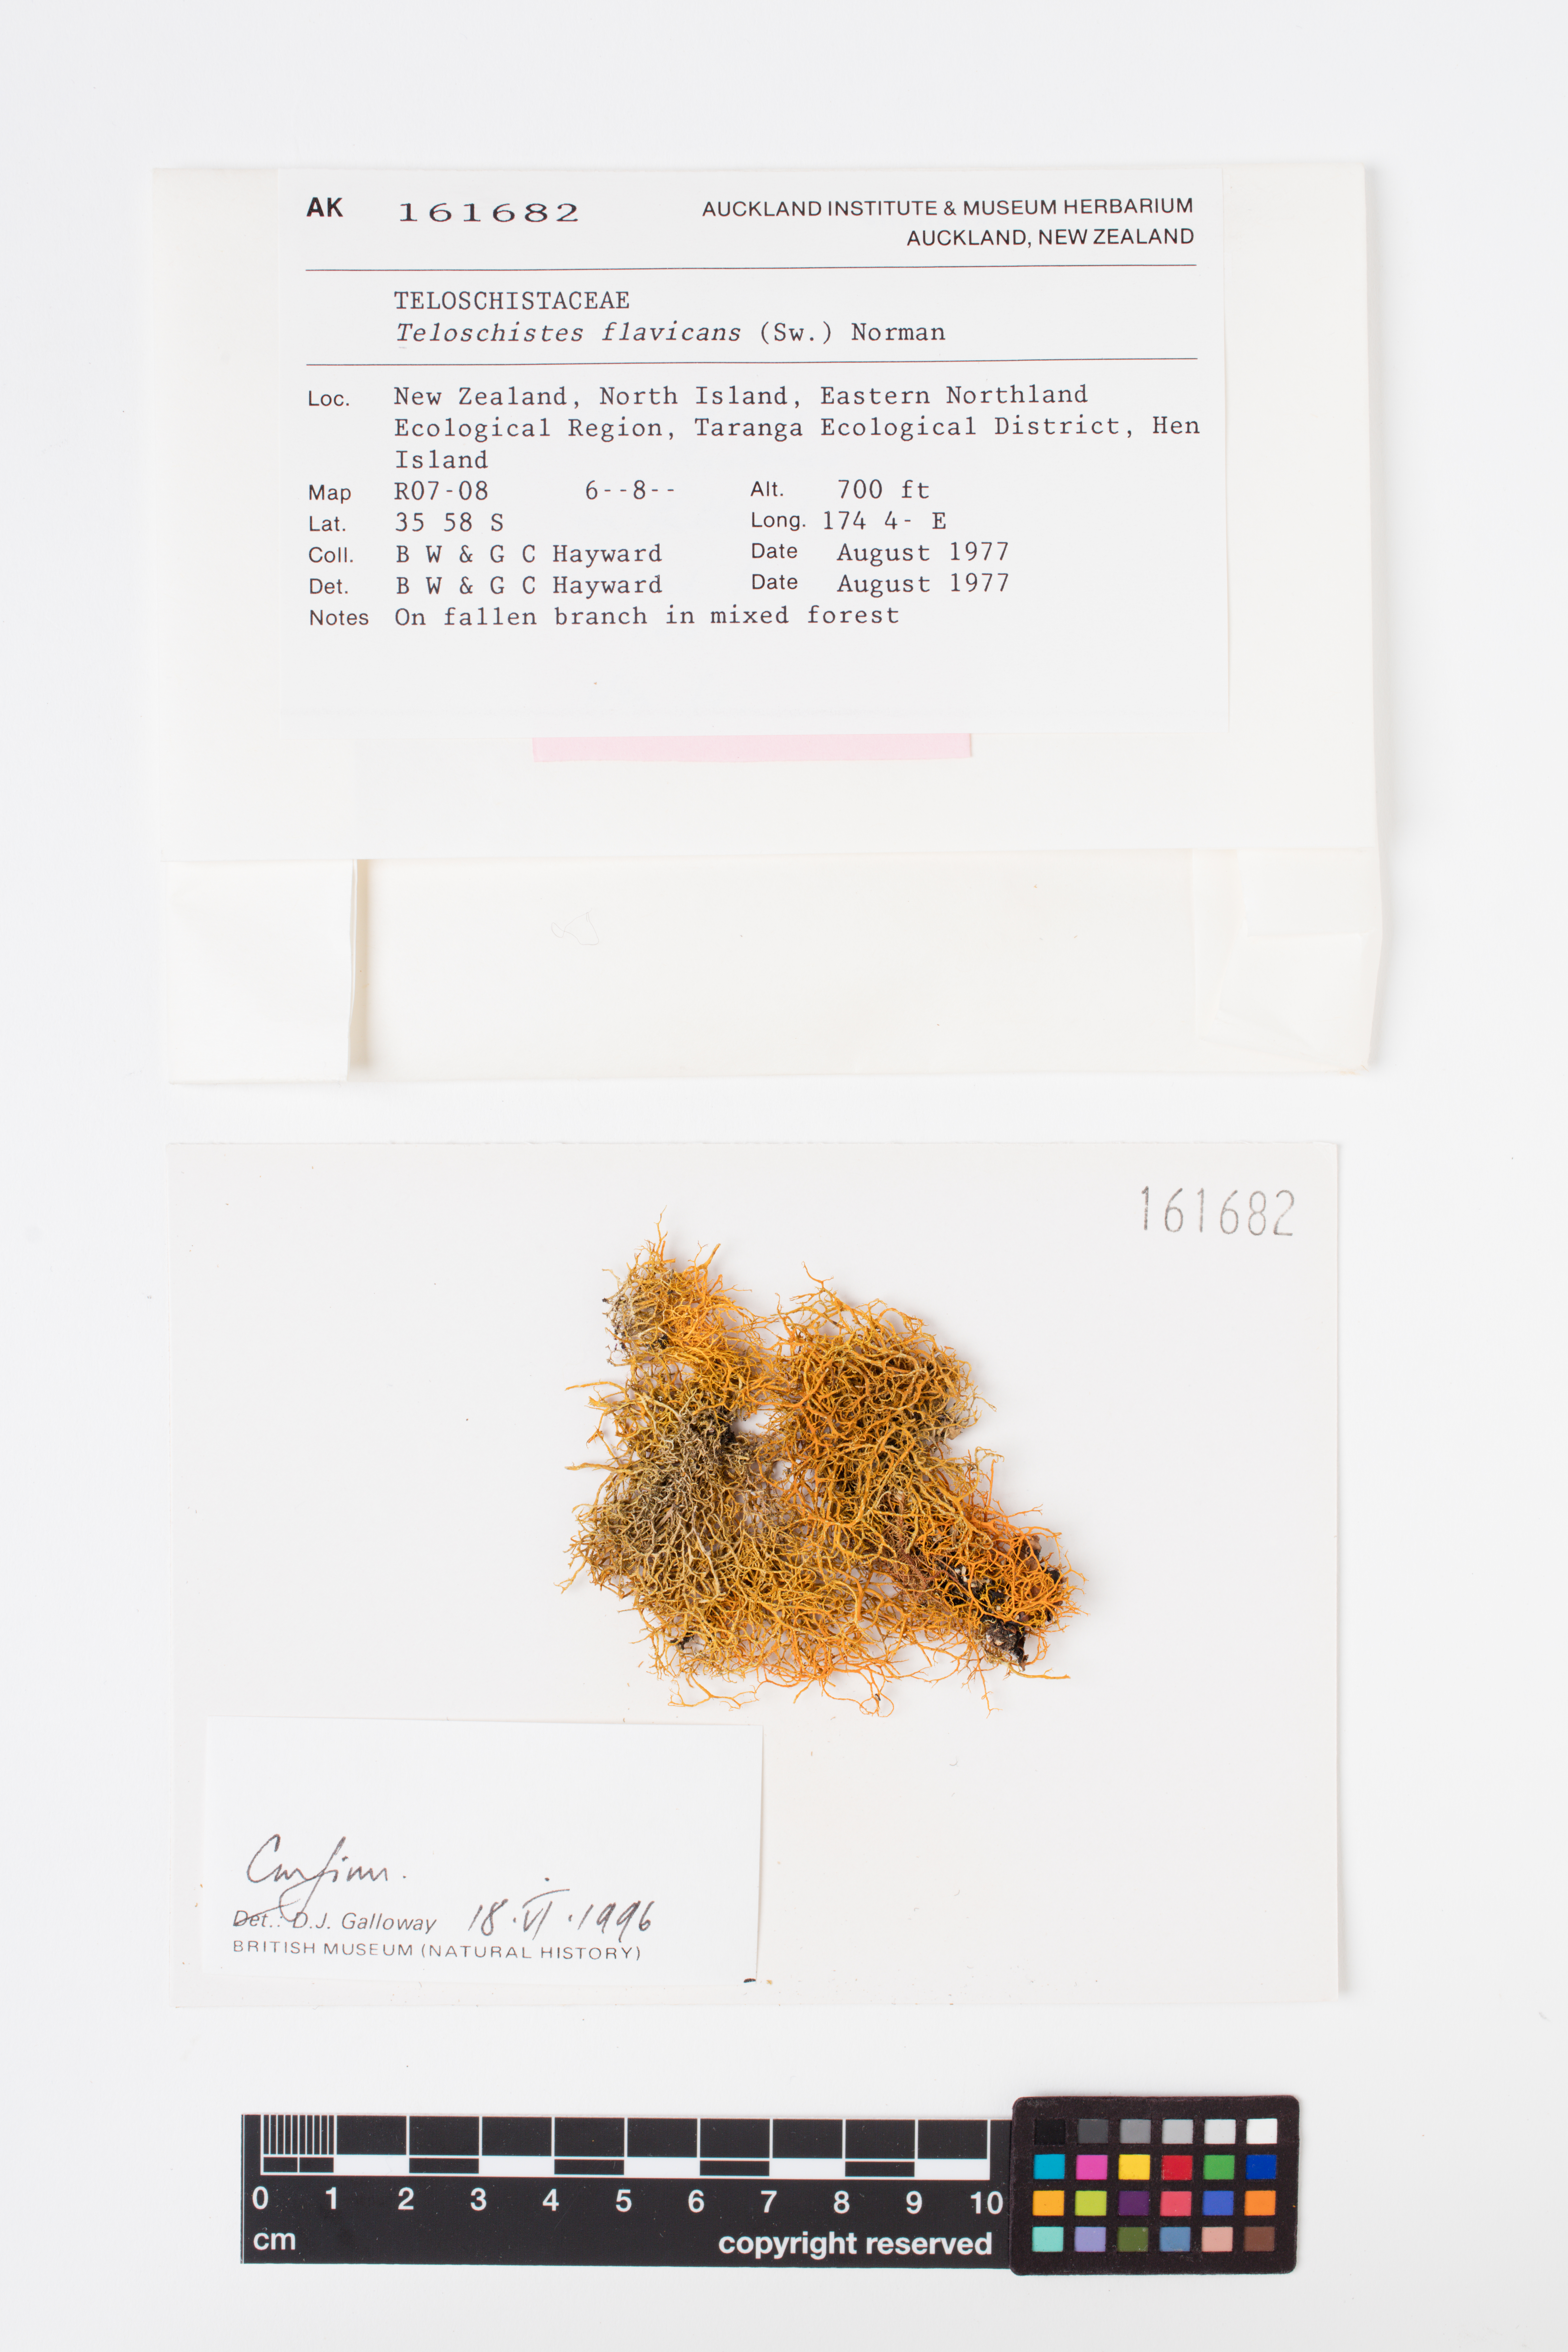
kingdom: Fungi
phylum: Ascomycota
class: Lecanoromycetes
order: Teloschistales
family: Teloschistaceae
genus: Teloschistes
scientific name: Teloschistes flavicans
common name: Golden hair-lichen
